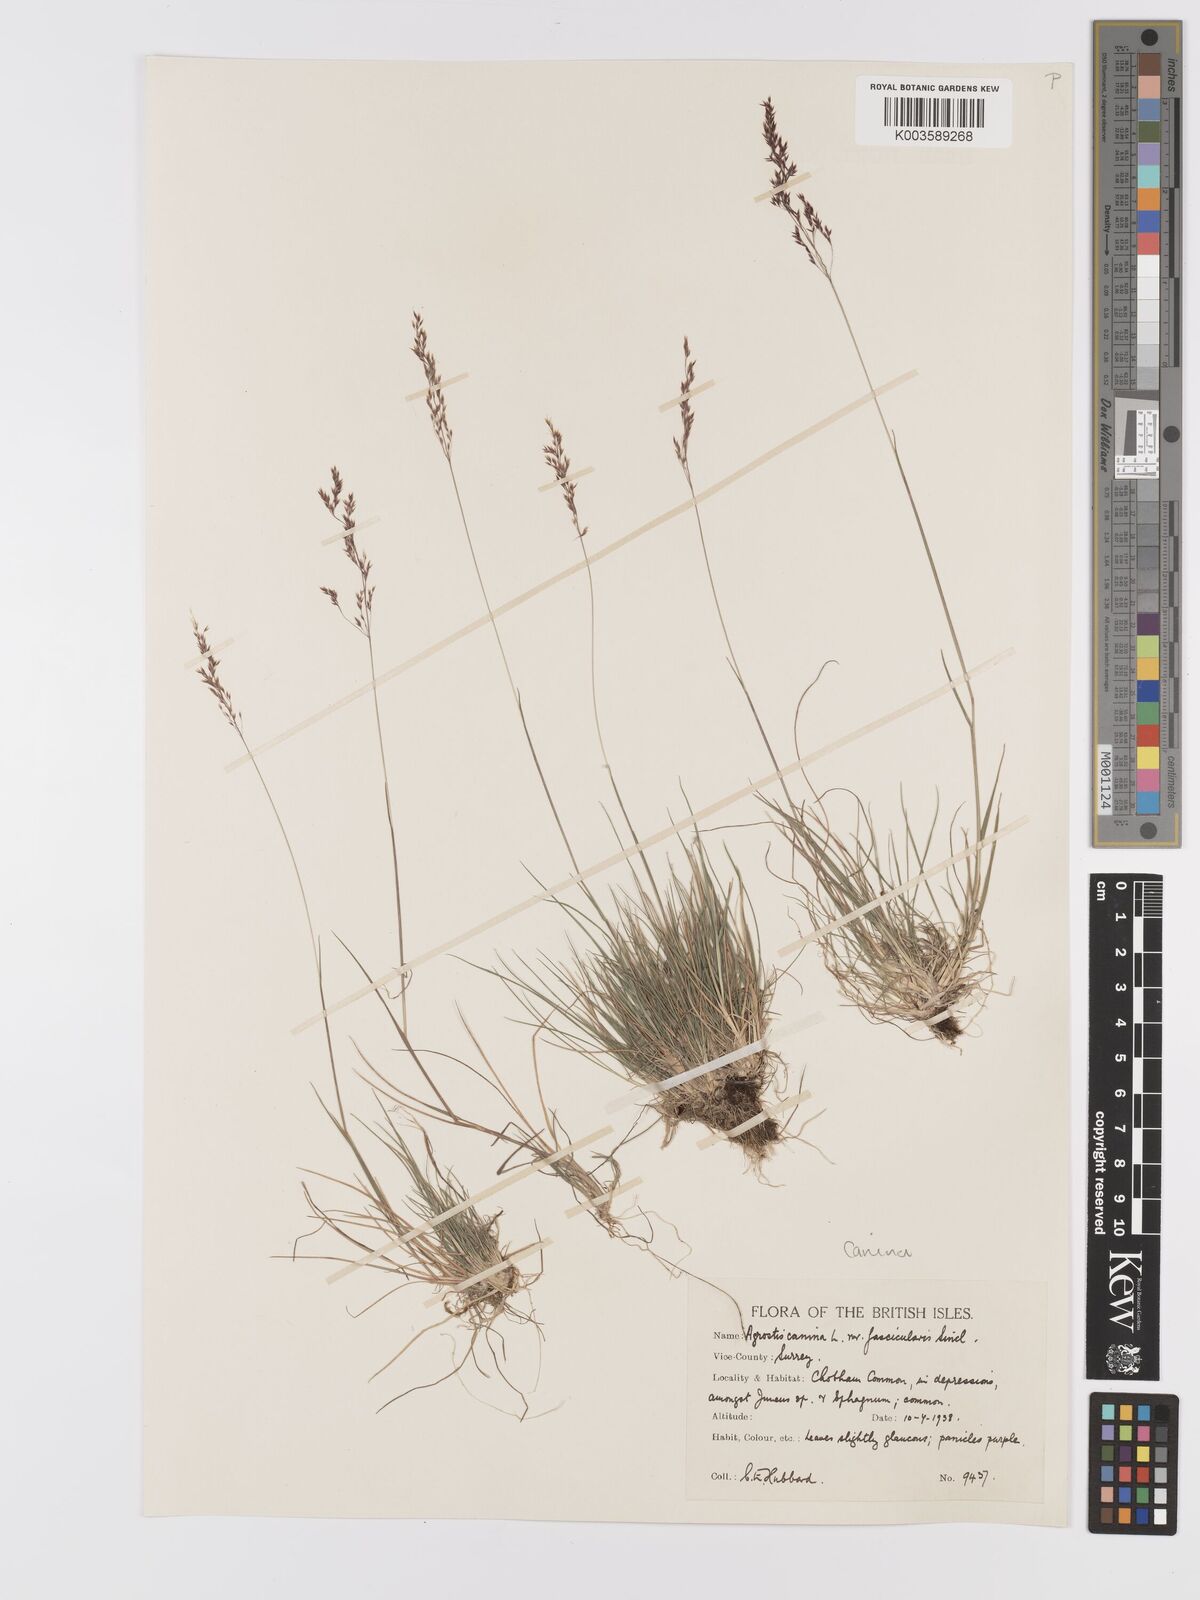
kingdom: Plantae
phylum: Tracheophyta
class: Liliopsida
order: Poales
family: Poaceae
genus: Agrostis
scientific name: Agrostis canina
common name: Velvet bent
